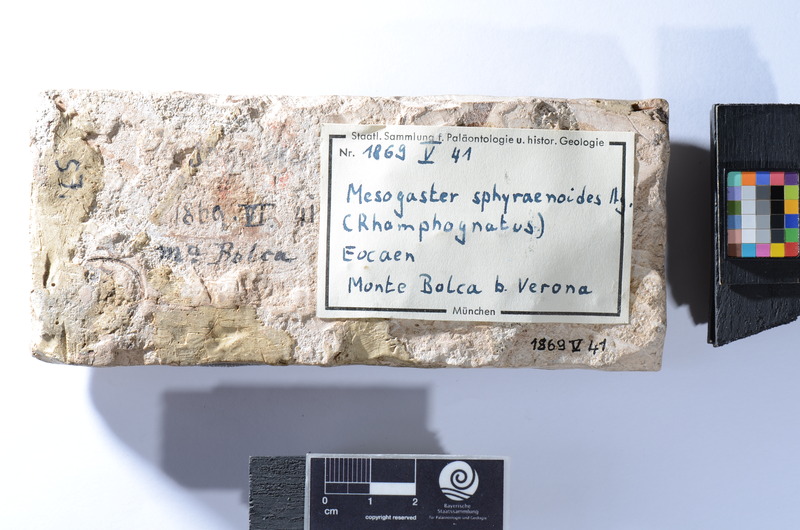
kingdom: Animalia
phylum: Chordata
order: Atheriniformes
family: Mesogasteridae
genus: Mesogaster
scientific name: Mesogaster sphyraenoides
